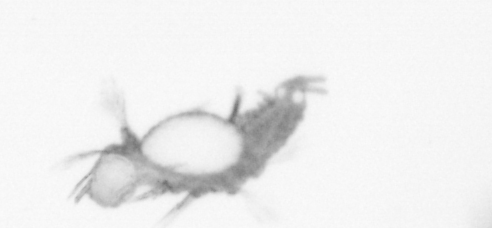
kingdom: Animalia
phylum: Annelida
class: Polychaeta
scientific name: Polychaeta
